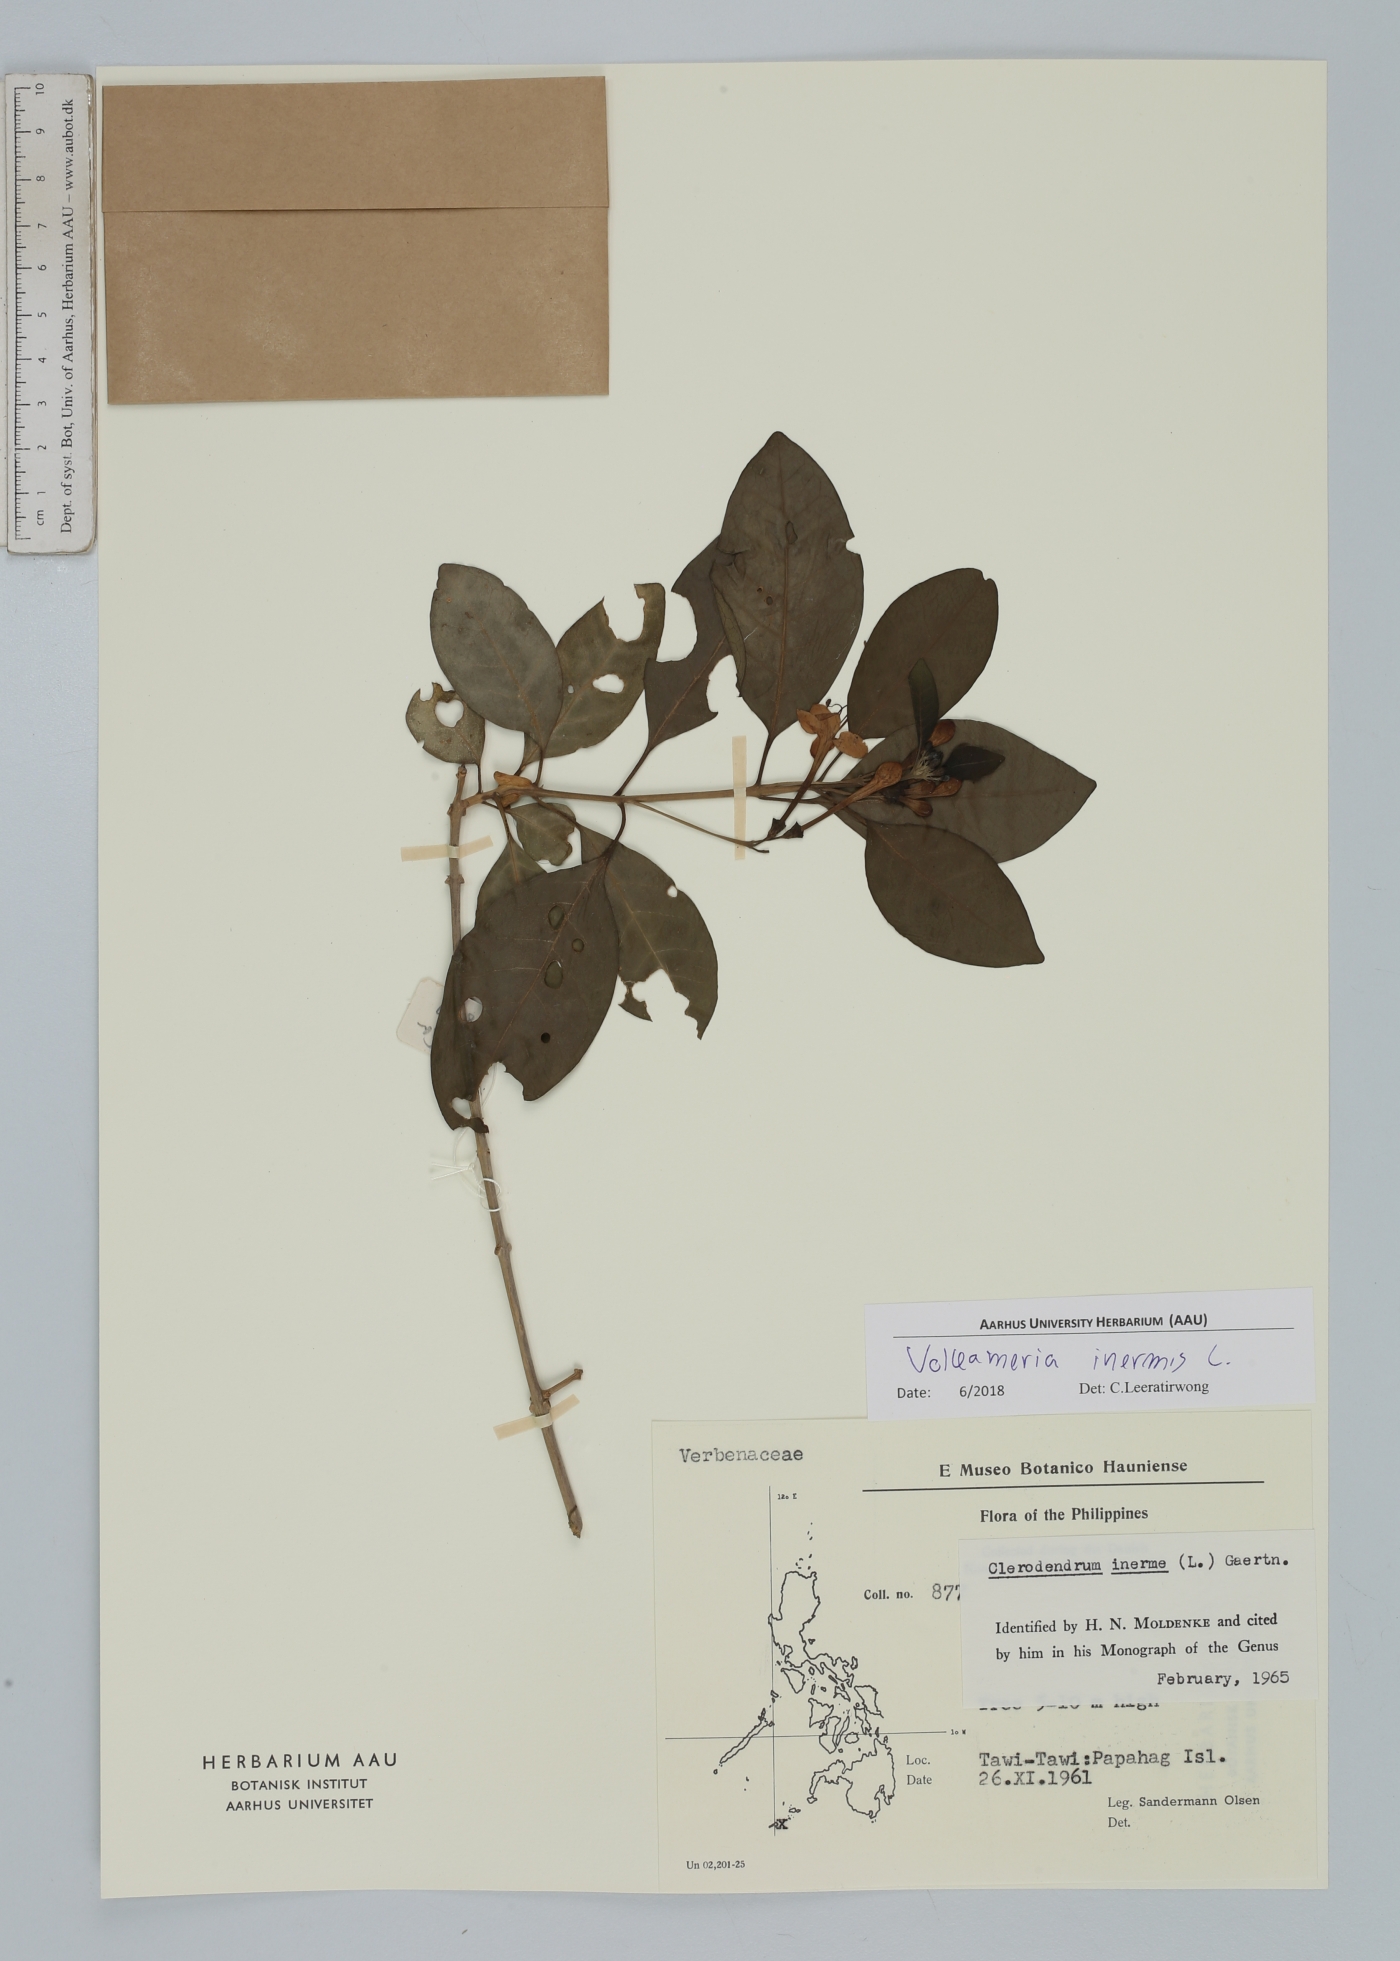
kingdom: Plantae
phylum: Tracheophyta
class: Magnoliopsida
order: Lamiales
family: Lamiaceae
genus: Volkameria
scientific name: Volkameria inermis
